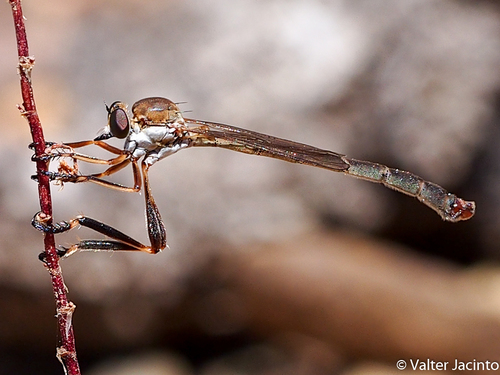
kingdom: Animalia
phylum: Arthropoda
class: Insecta
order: Diptera
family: Asilidae
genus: Leptogaster
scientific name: Leptogaster algarvensis
